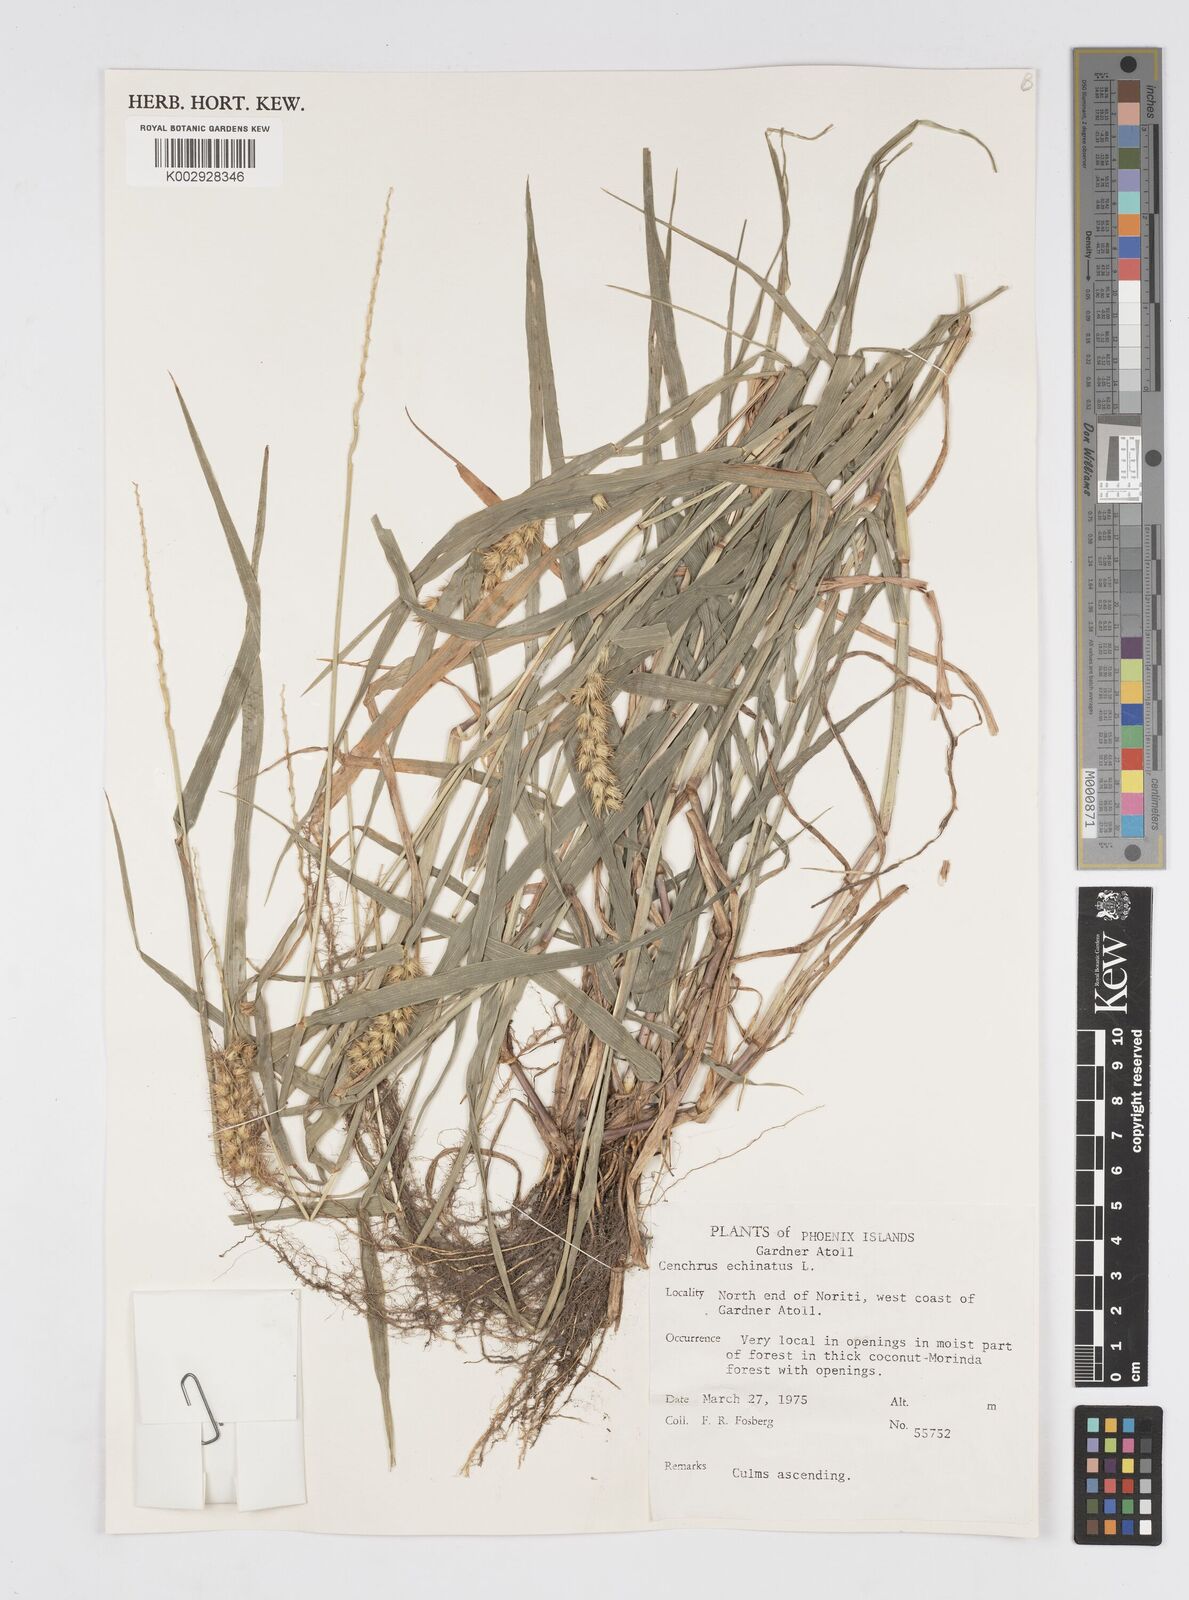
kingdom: Plantae
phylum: Tracheophyta
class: Liliopsida
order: Poales
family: Poaceae
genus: Cenchrus
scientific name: Cenchrus echinatus
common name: Southern sandbur
